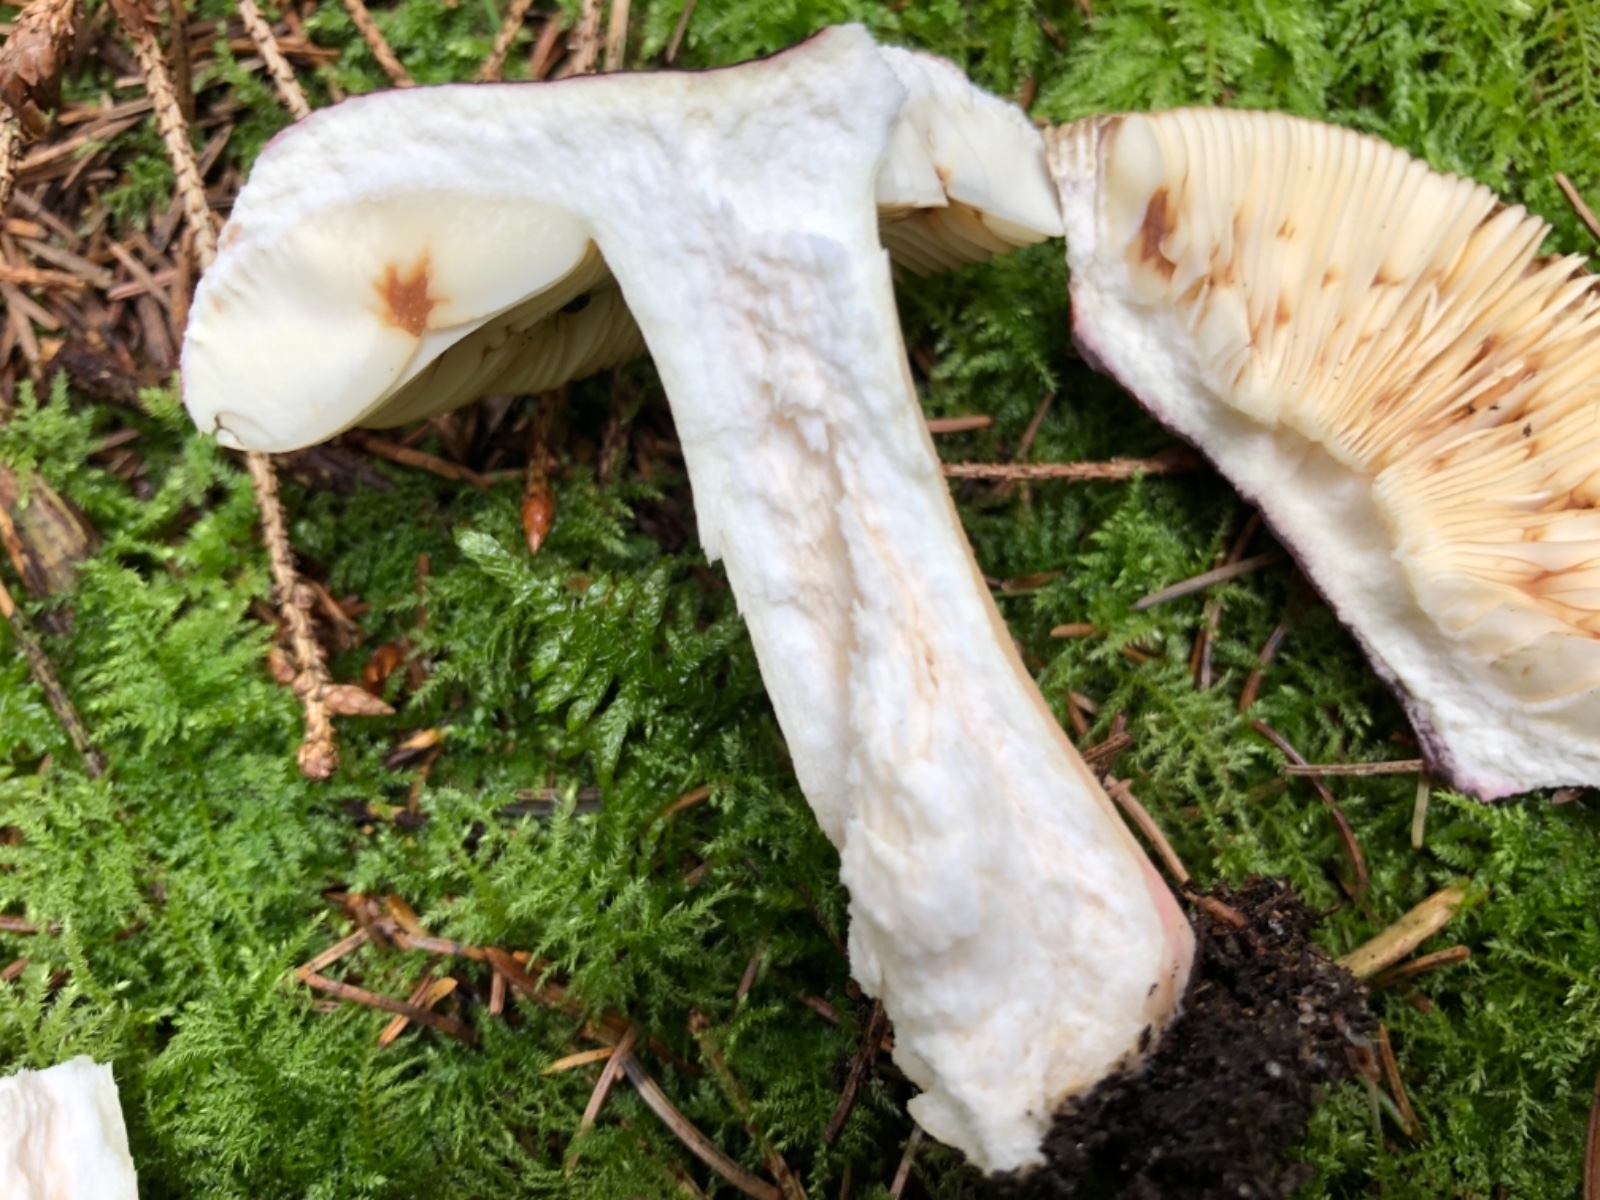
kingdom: Fungi
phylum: Basidiomycota
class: Agaricomycetes
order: Russulales
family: Russulaceae
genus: Russula
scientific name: Russula xerampelina
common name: hummer-skørhat
